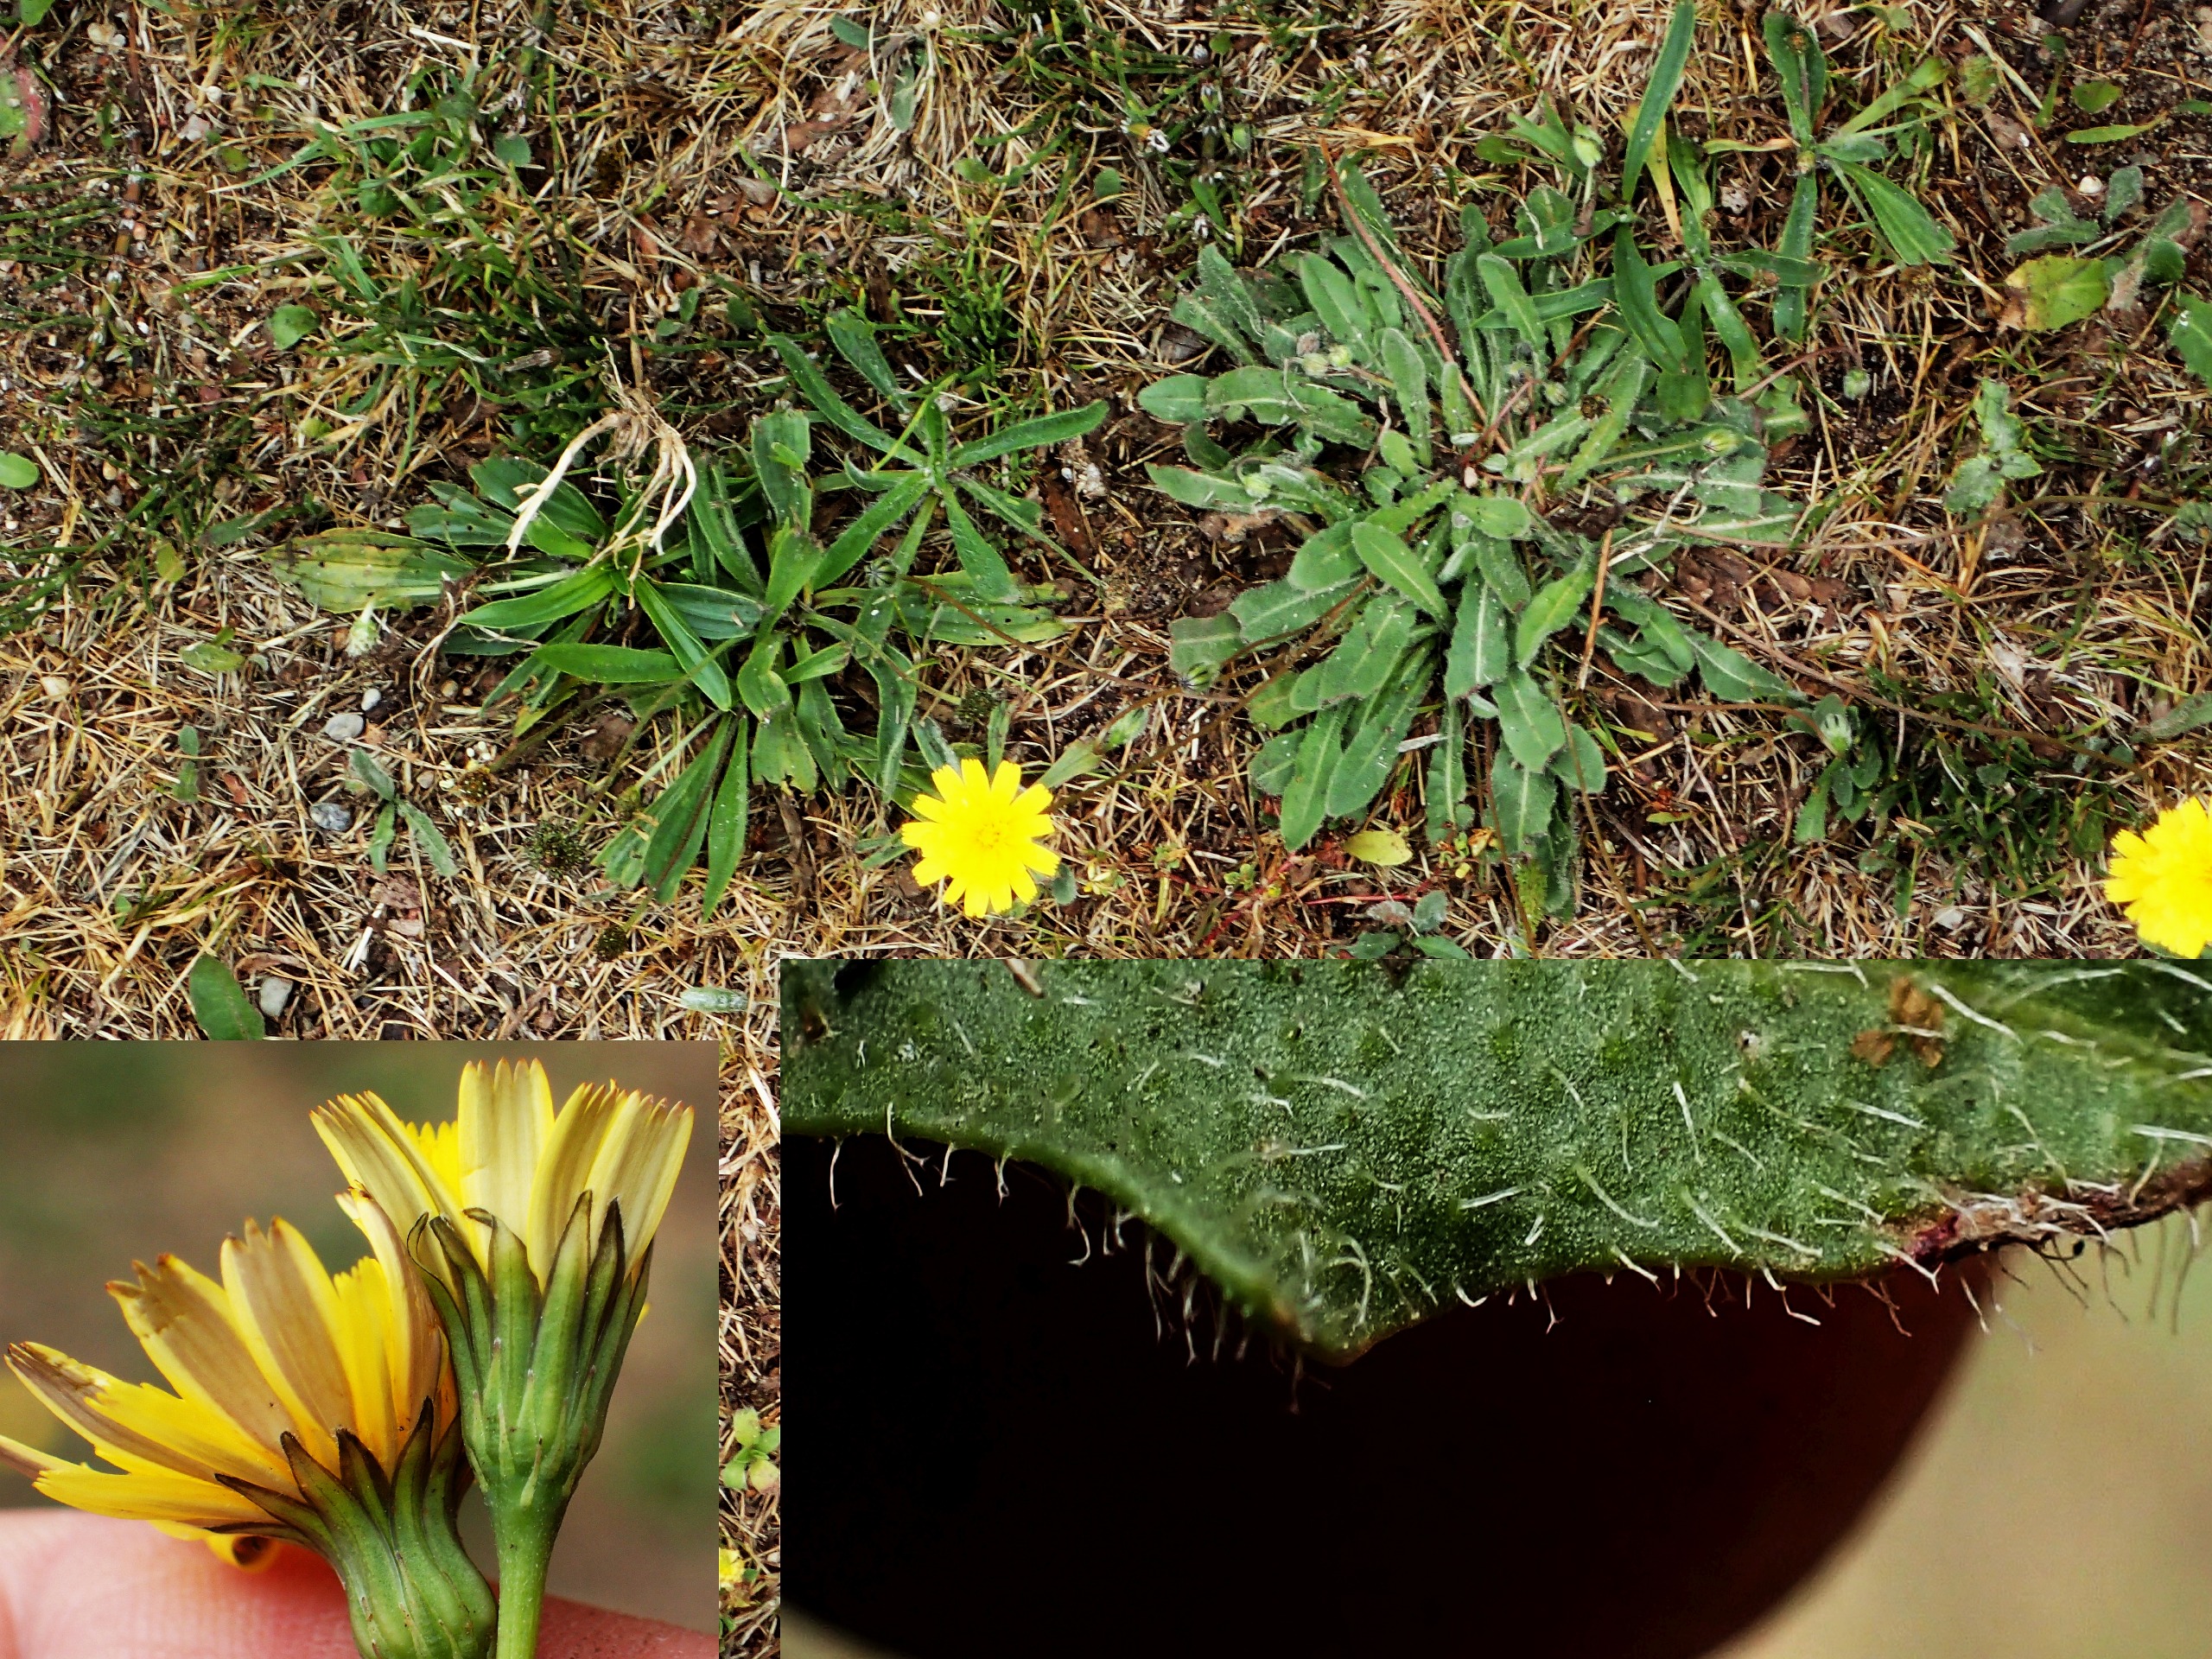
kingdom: Plantae
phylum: Tracheophyta
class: Magnoliopsida
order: Asterales
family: Asteraceae
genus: Thrincia
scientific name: Thrincia saxatilis
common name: Hundesalat
